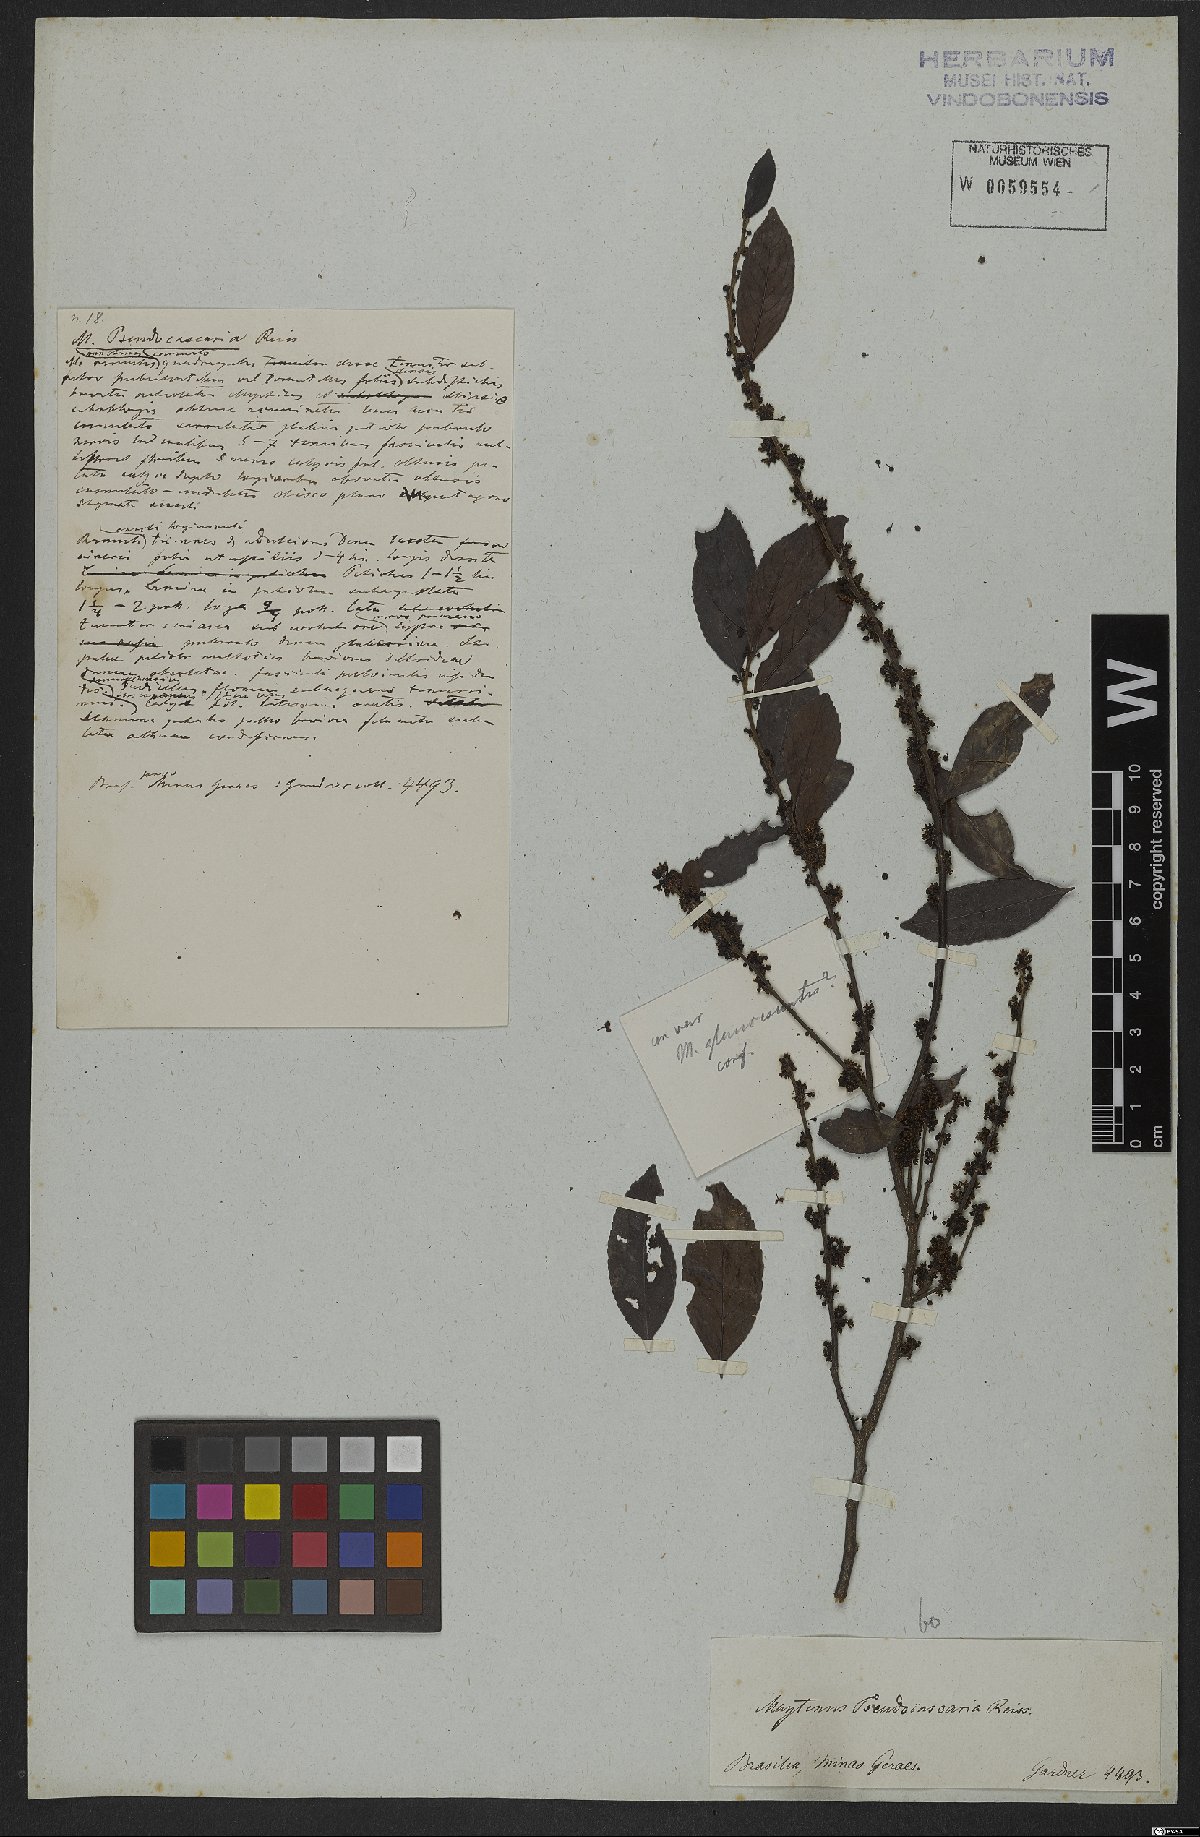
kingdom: Plantae
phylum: Tracheophyta
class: Magnoliopsida
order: Celastrales
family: Celastraceae
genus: Monteverdia
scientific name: Monteverdia evonymoides
